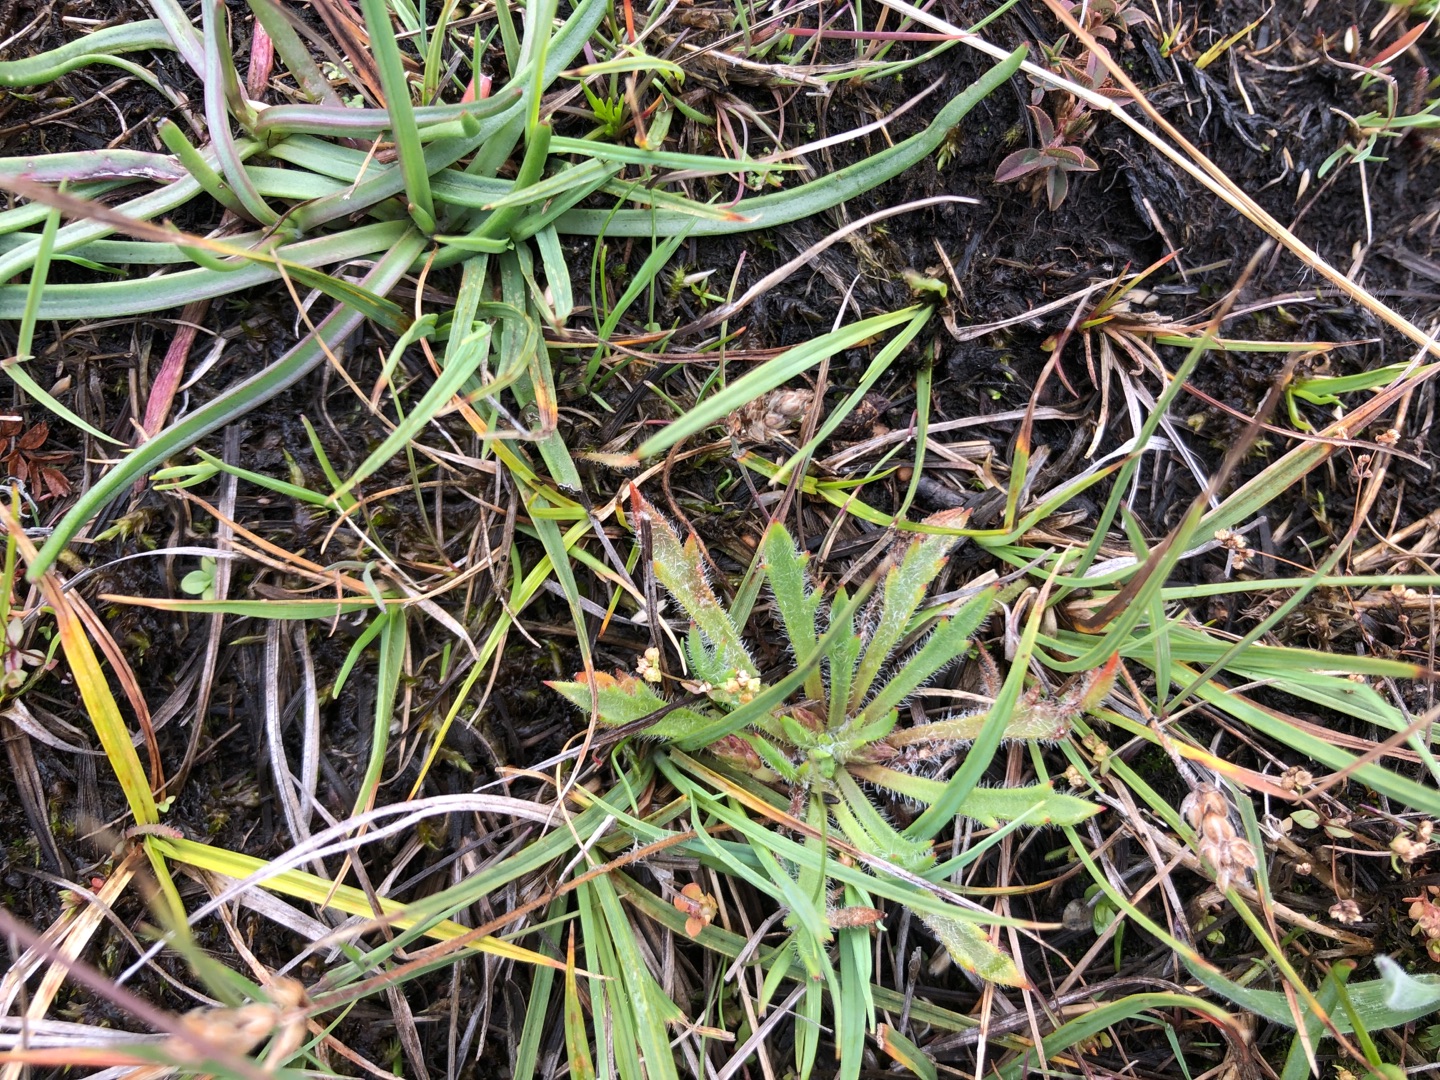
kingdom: Plantae
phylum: Tracheophyta
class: Magnoliopsida
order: Lamiales
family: Plantaginaceae
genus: Plantago
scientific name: Plantago coronopus
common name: Fliget vejbred
